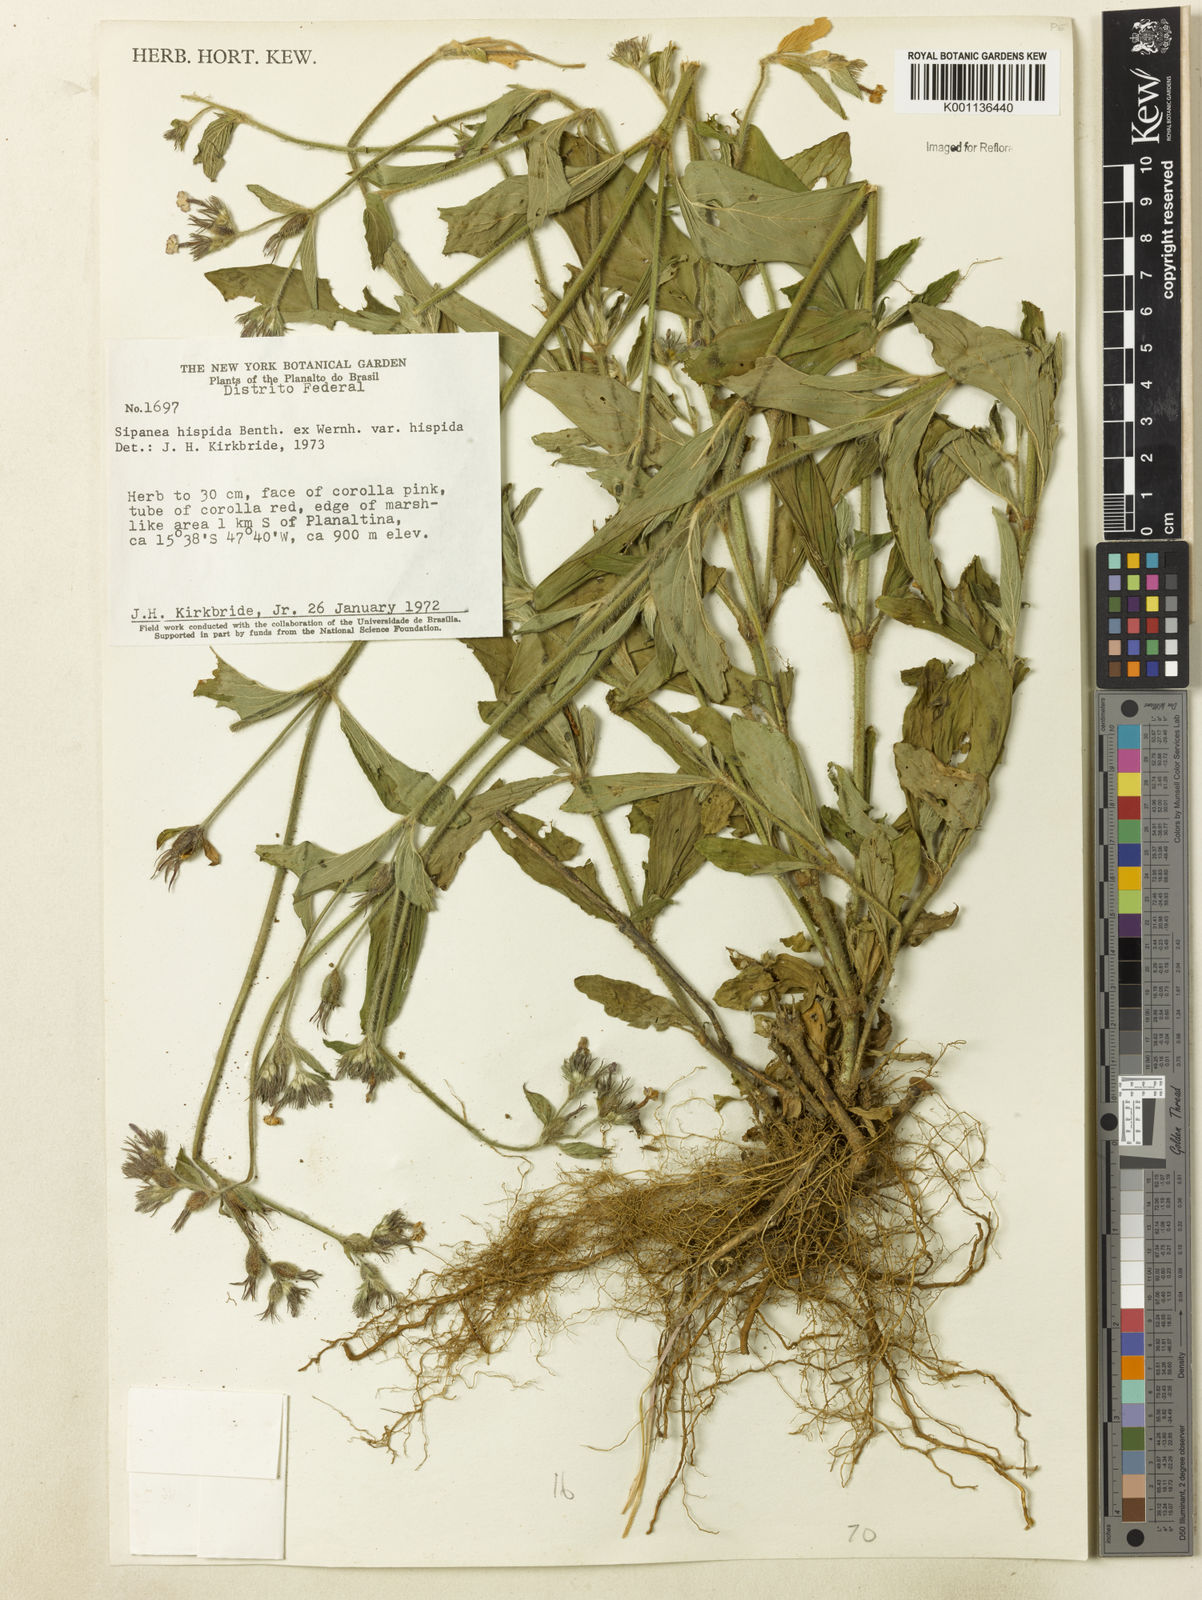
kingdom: Plantae
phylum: Tracheophyta
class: Magnoliopsida
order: Gentianales
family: Rubiaceae
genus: Sipanea
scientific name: Sipanea hispida
